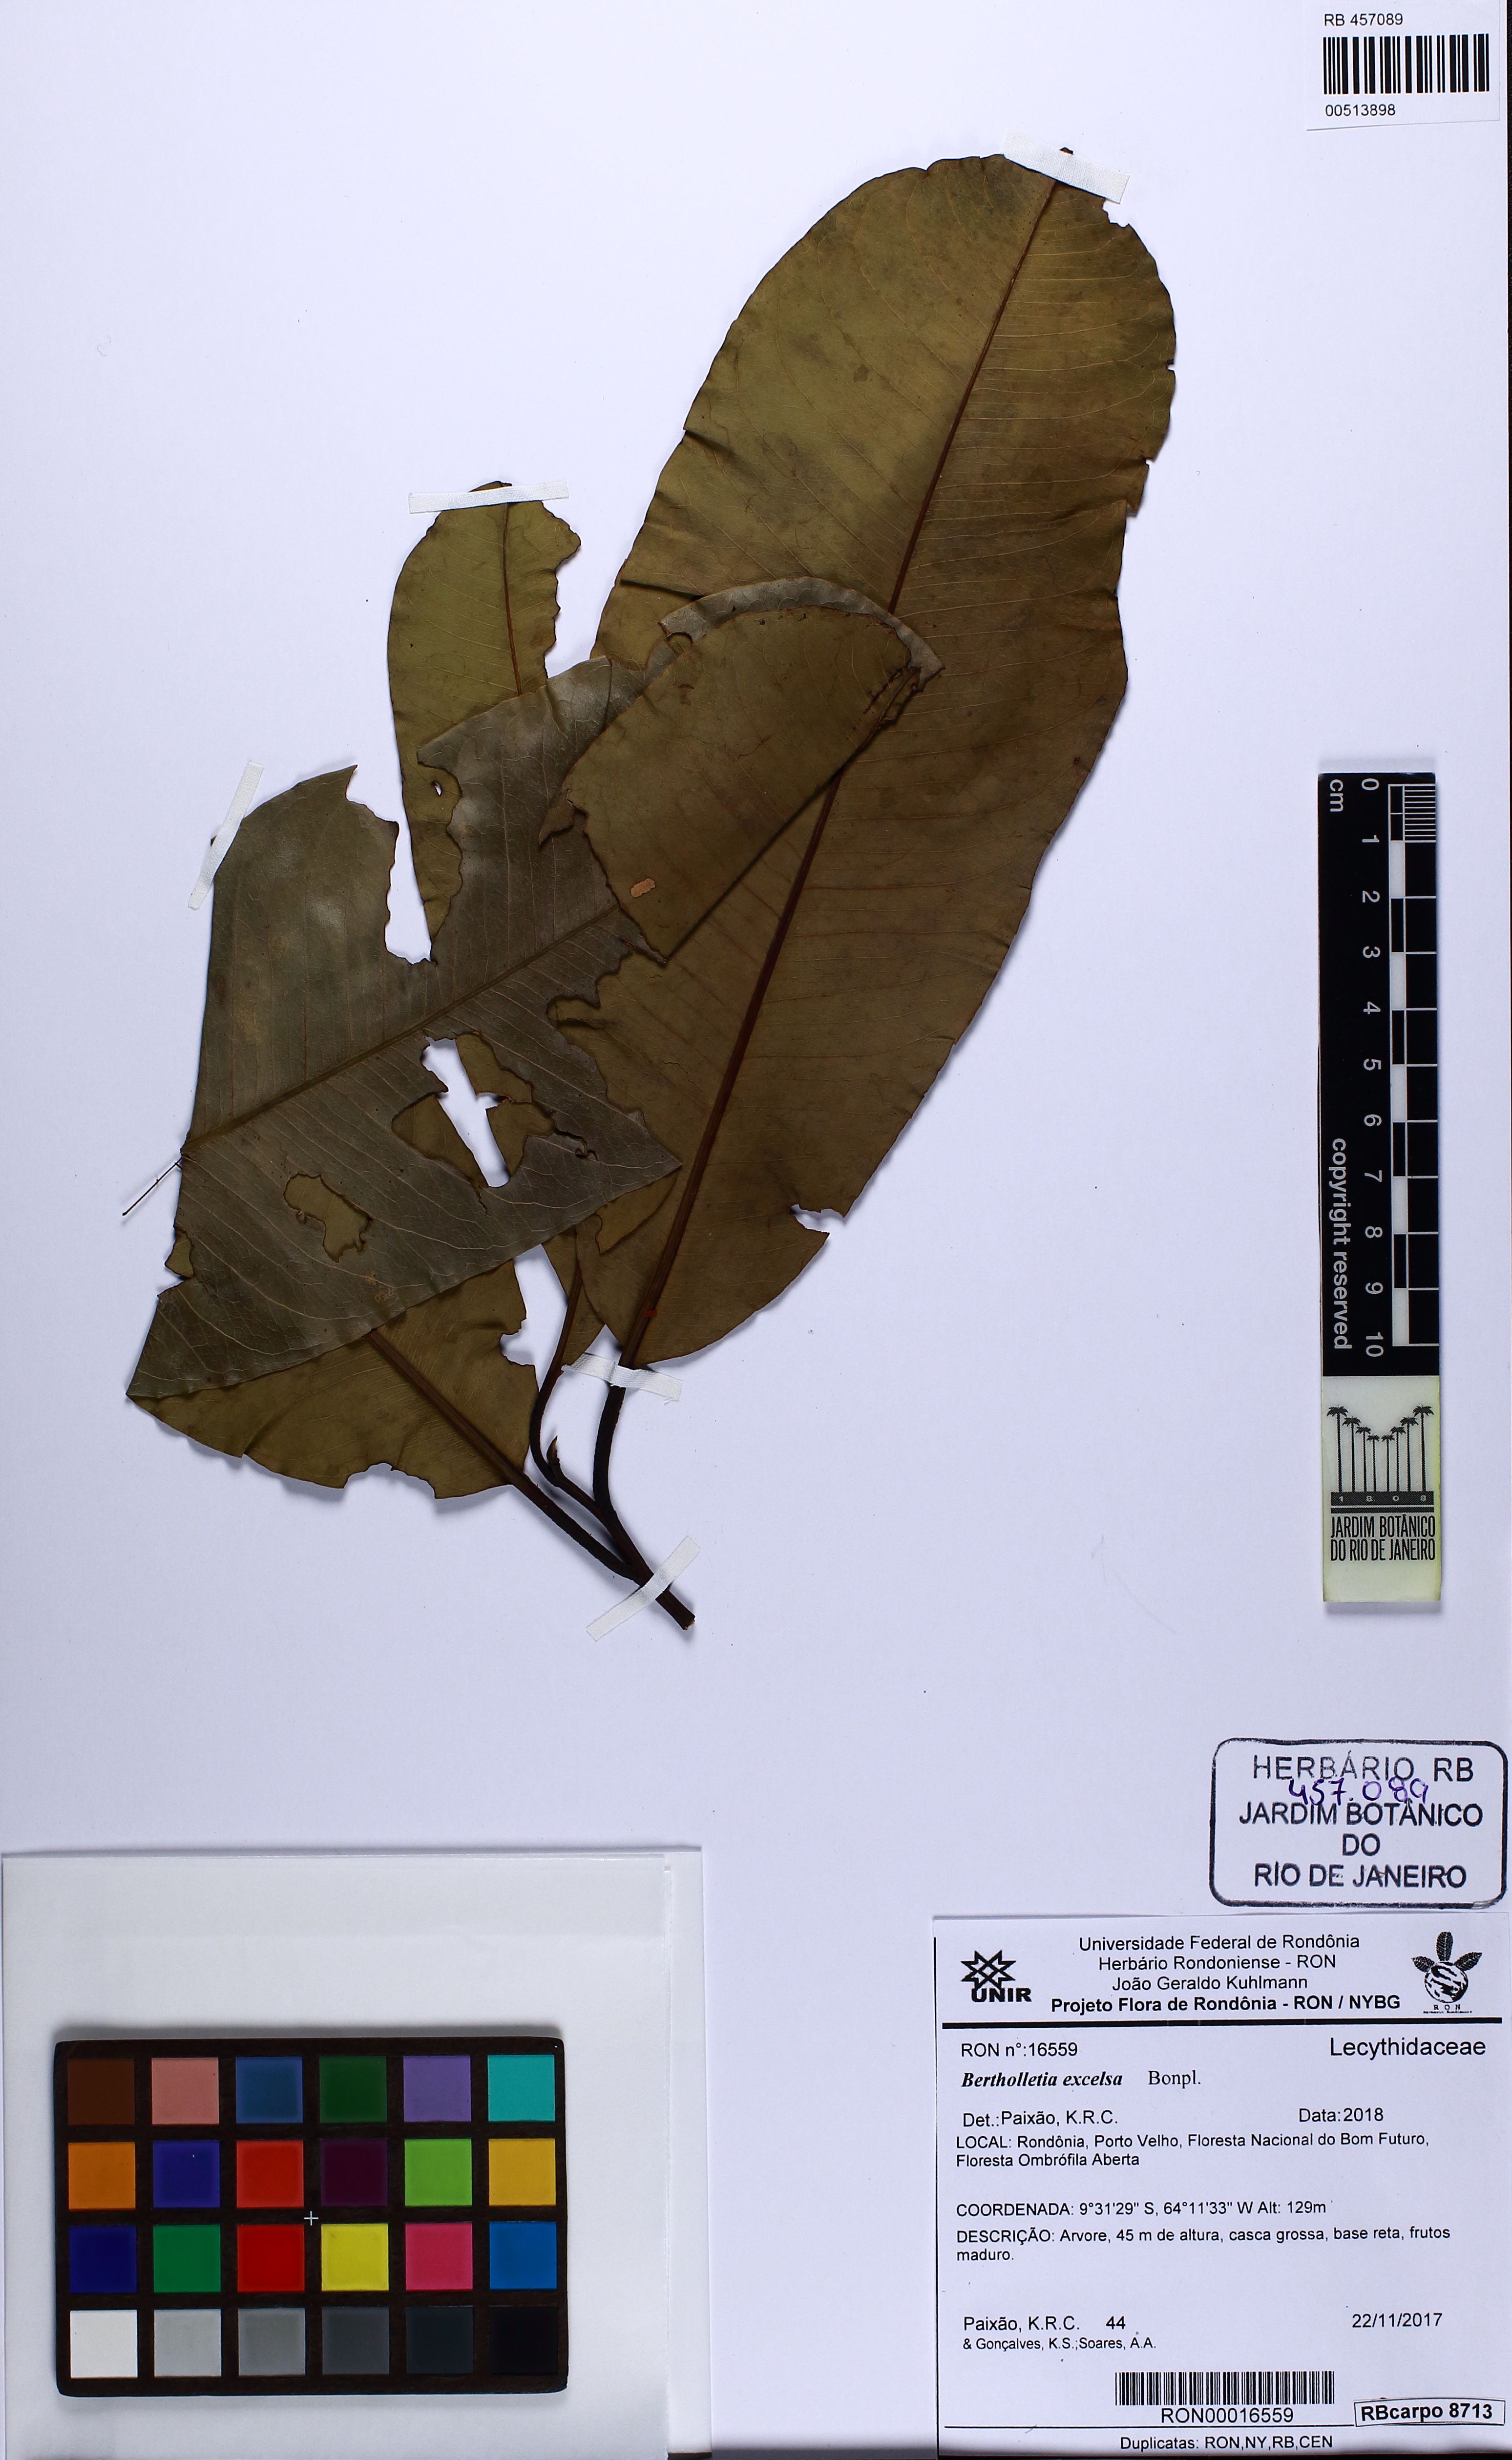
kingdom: Plantae
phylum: Tracheophyta
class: Magnoliopsida
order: Ericales
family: Lecythidaceae
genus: Bertholletia
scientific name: Bertholletia excelsa
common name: Brazil-nut tree
